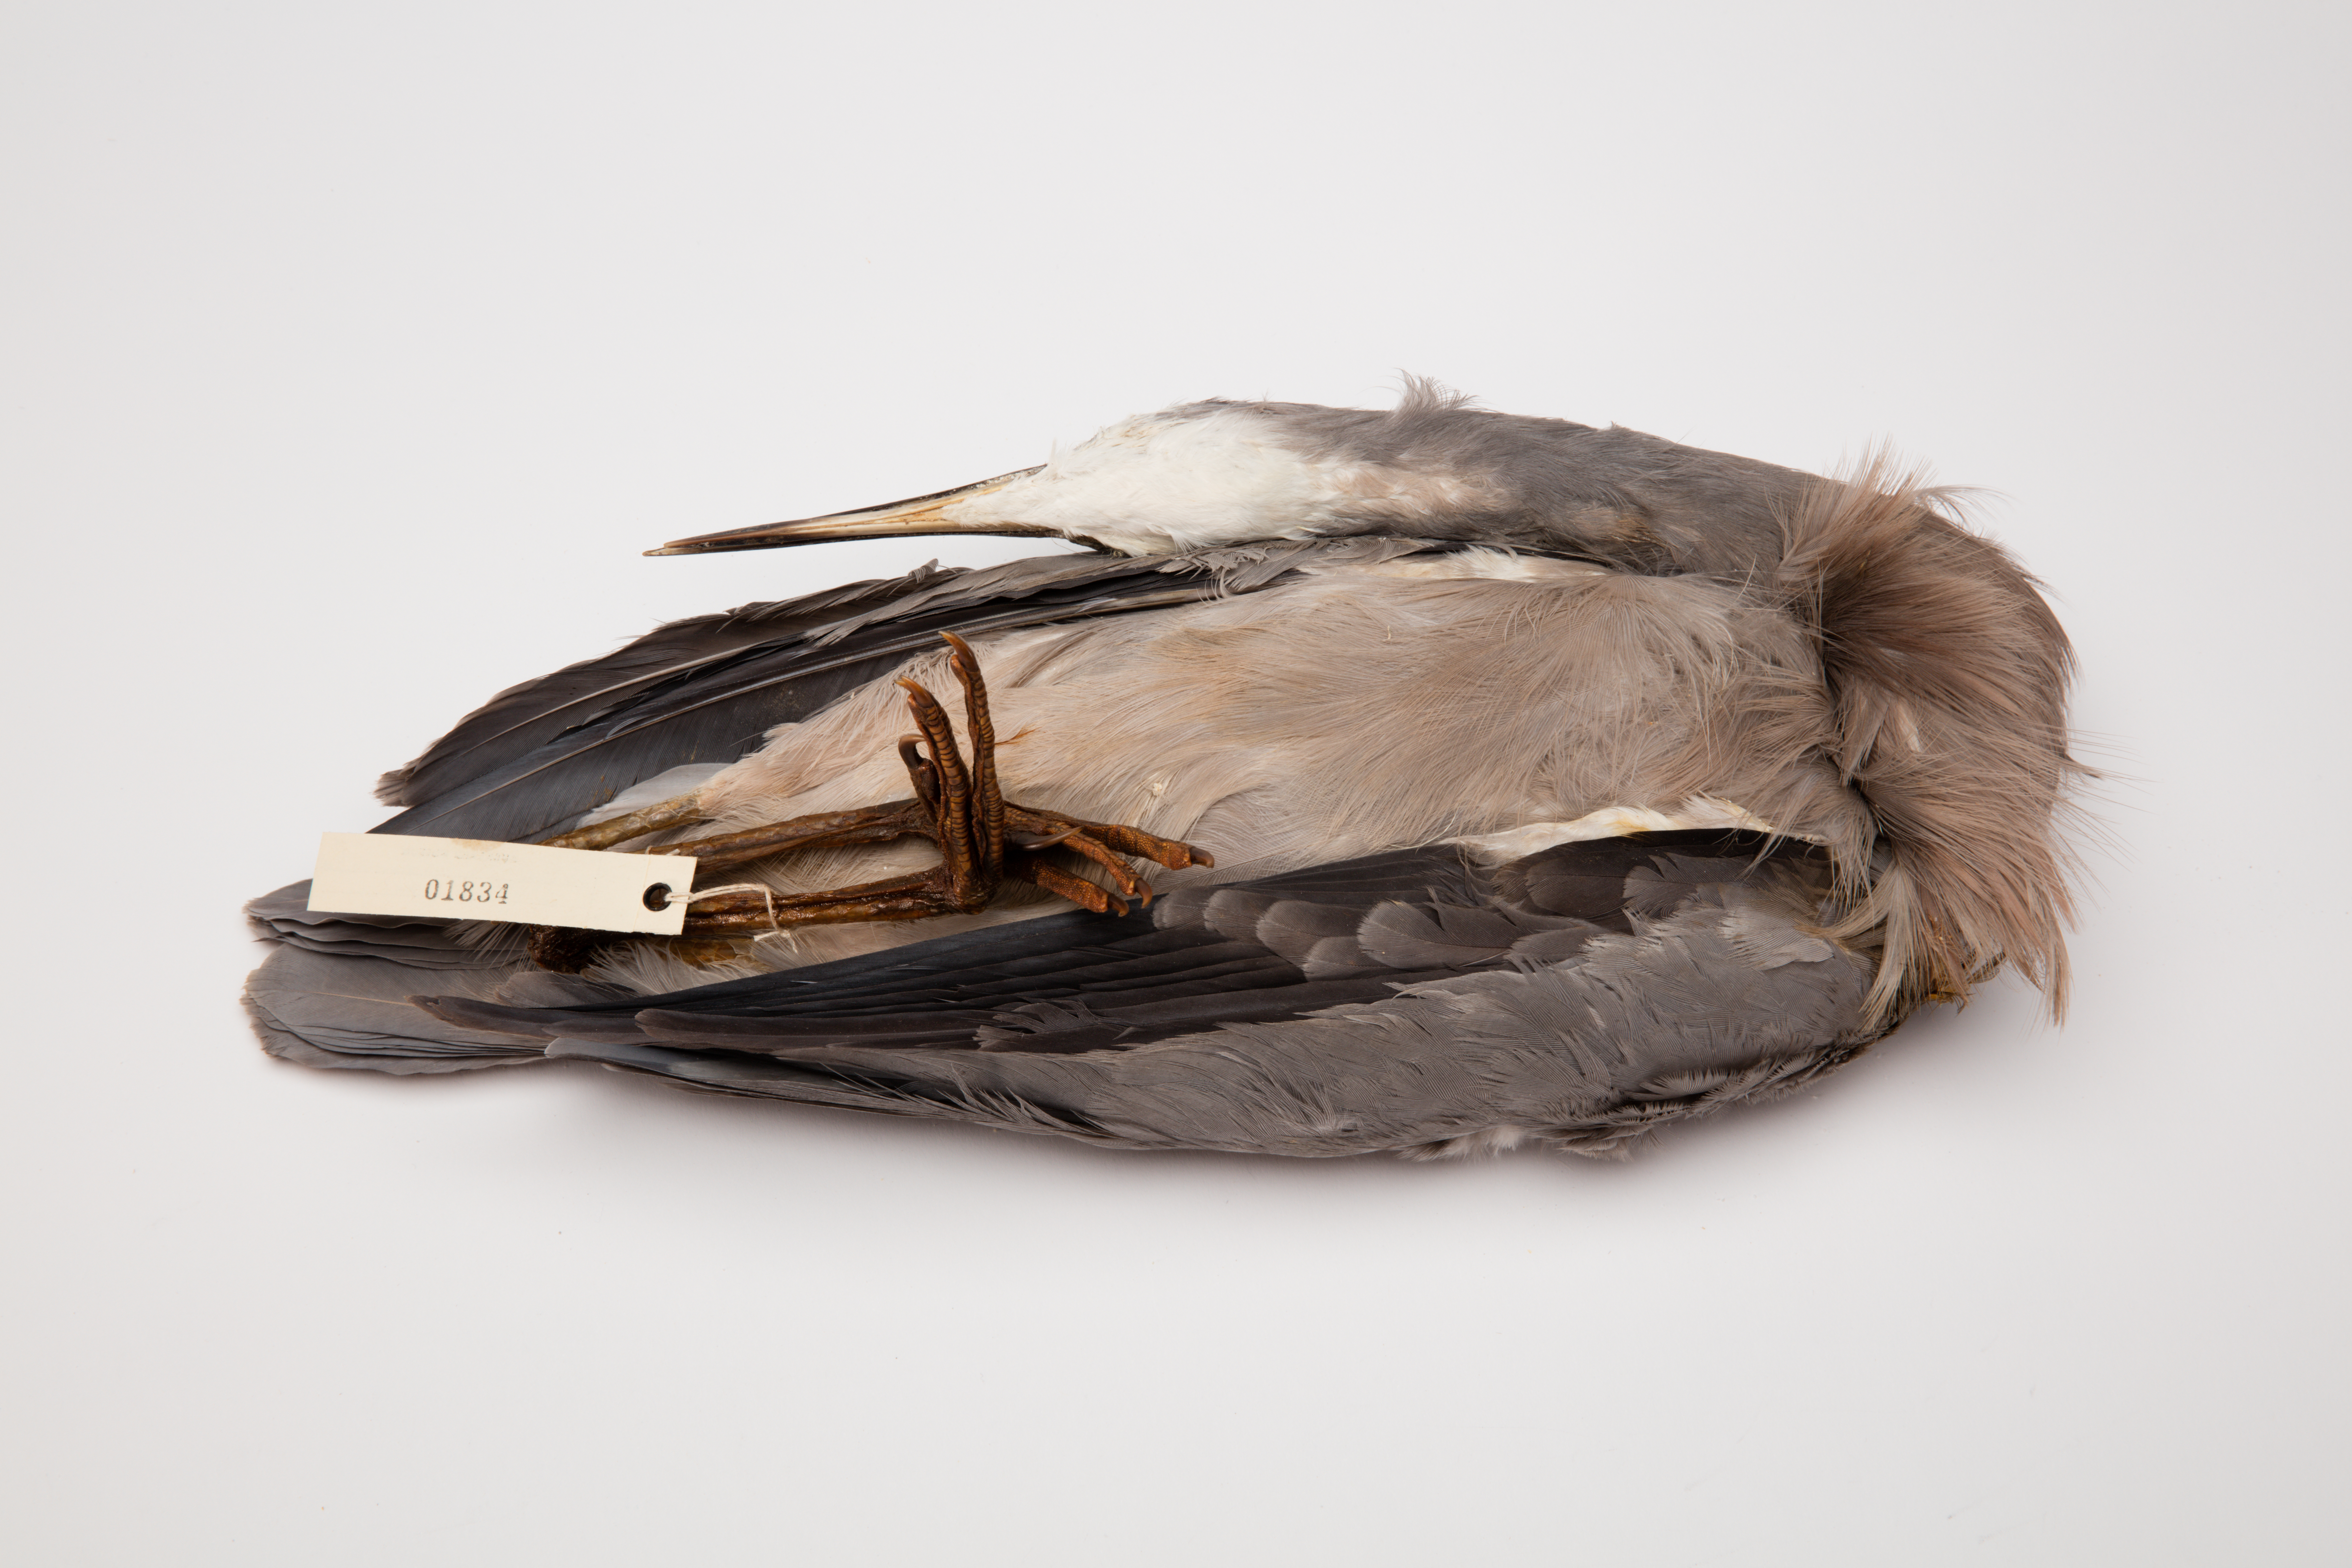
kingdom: Animalia
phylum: Chordata
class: Aves
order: Pelecaniformes
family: Ardeidae
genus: Egretta
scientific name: Egretta novaehollandiae
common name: White-faced heron
